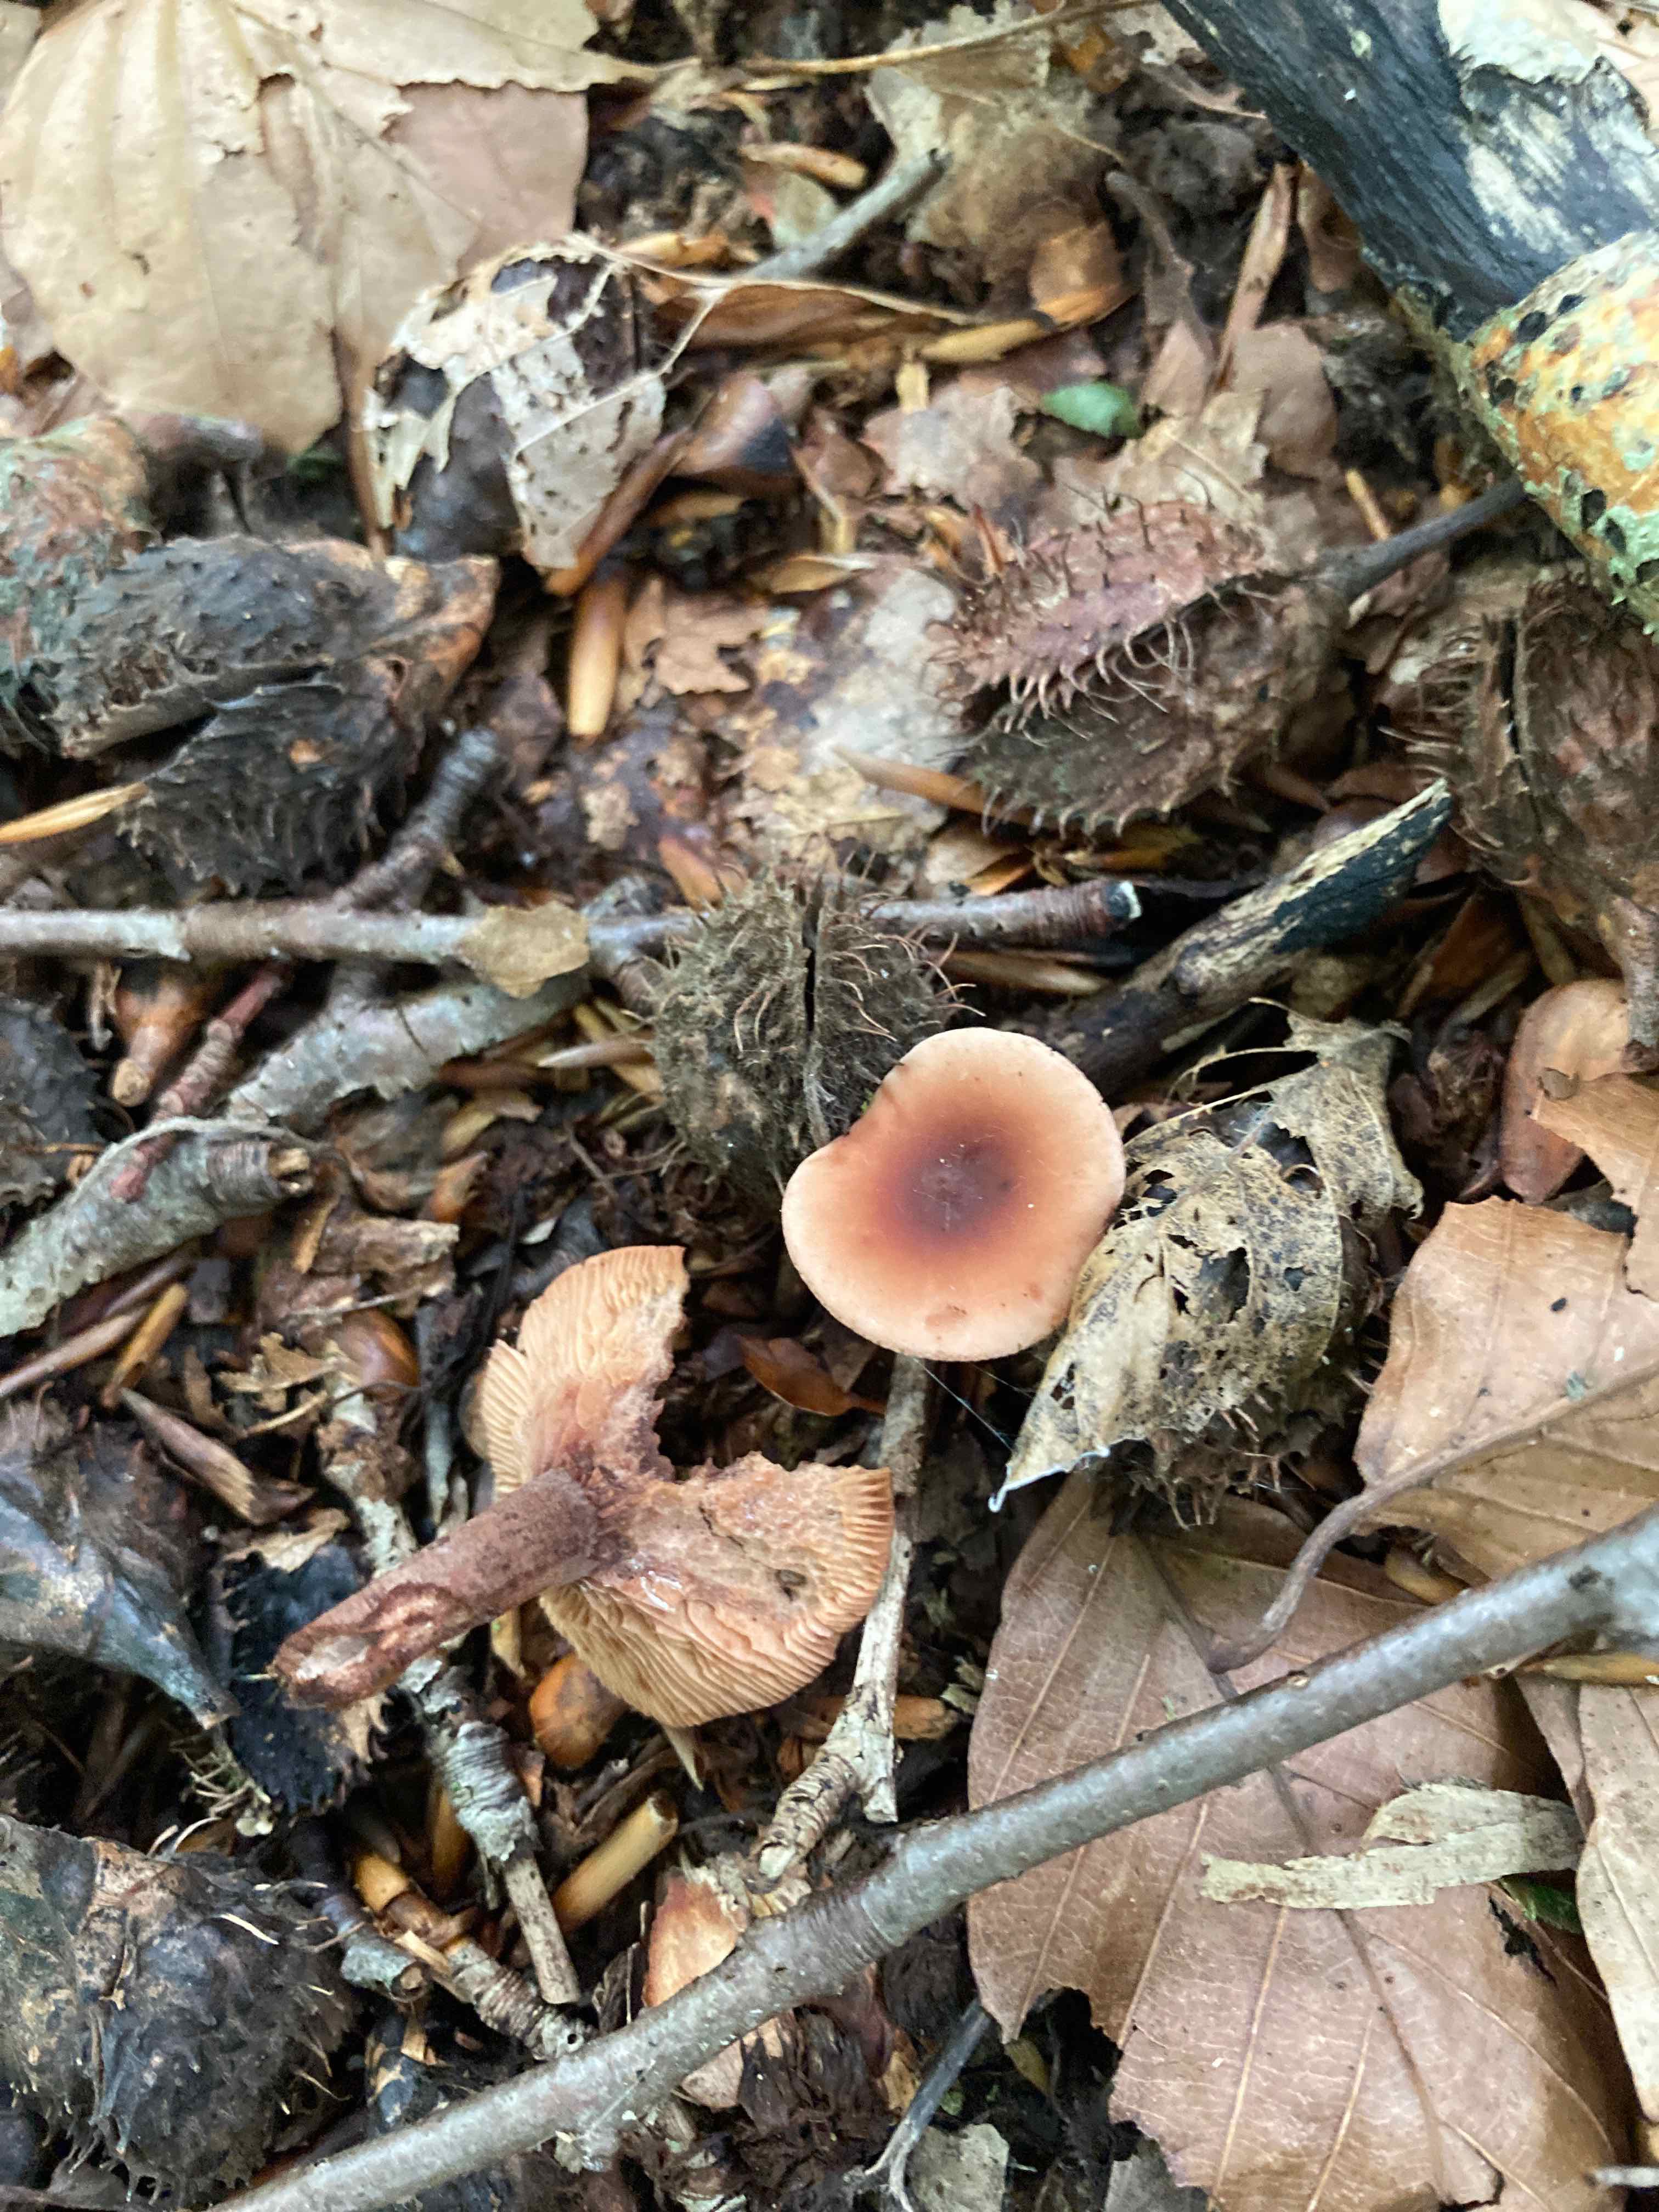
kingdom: Fungi
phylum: Basidiomycota
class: Agaricomycetes
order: Russulales
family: Russulaceae
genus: Lactarius
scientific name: Lactarius camphoratus
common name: kamfer-mælkehat
